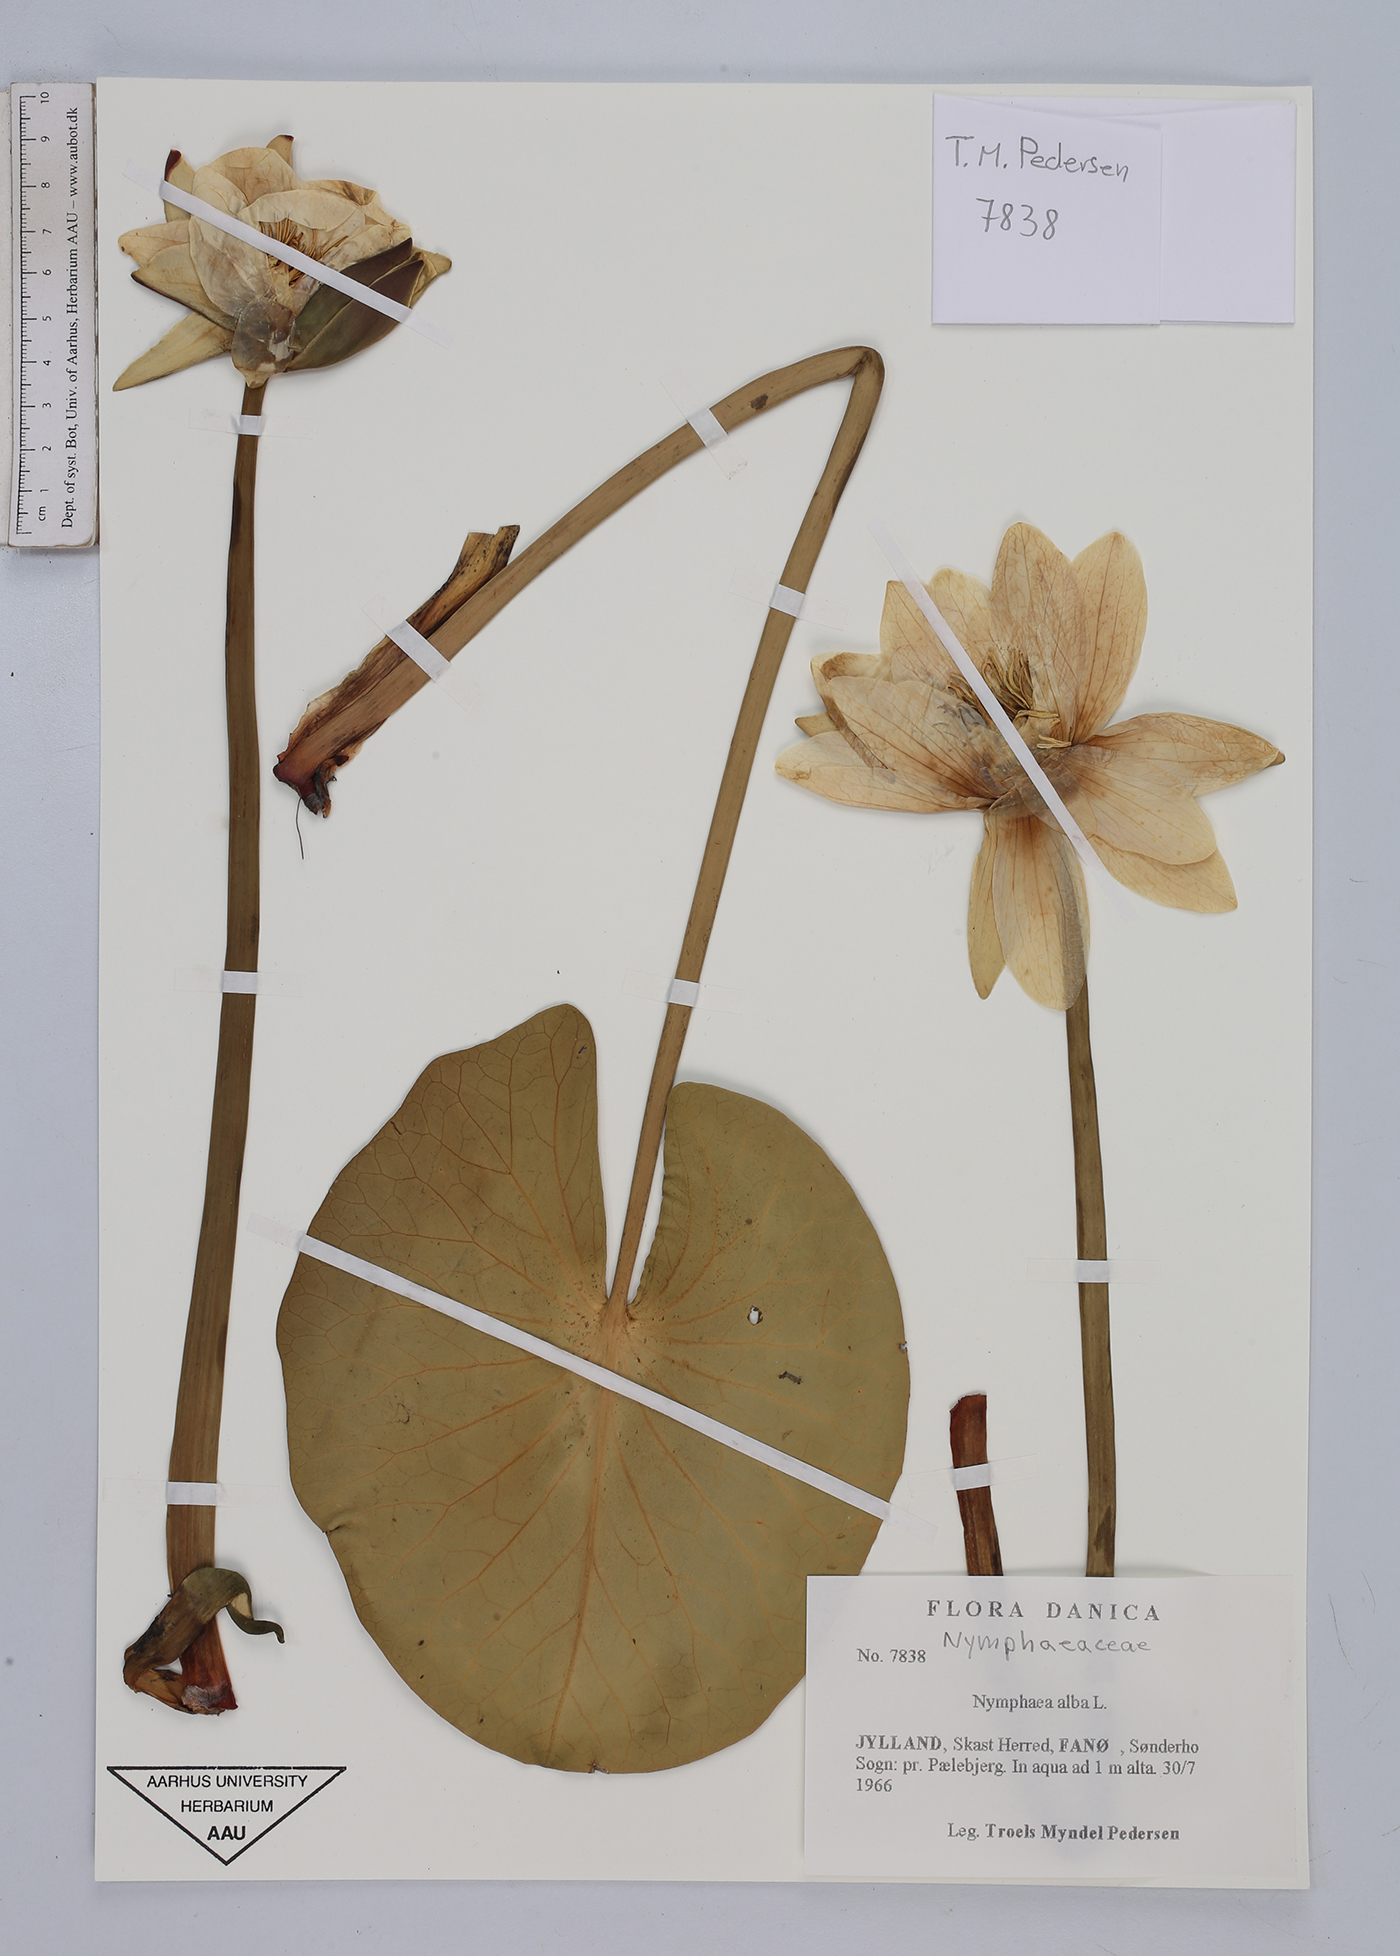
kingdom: Plantae
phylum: Tracheophyta
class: Magnoliopsida
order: Nymphaeales
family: Nymphaeaceae
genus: Nymphaea
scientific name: Nymphaea alba
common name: White water-lily
